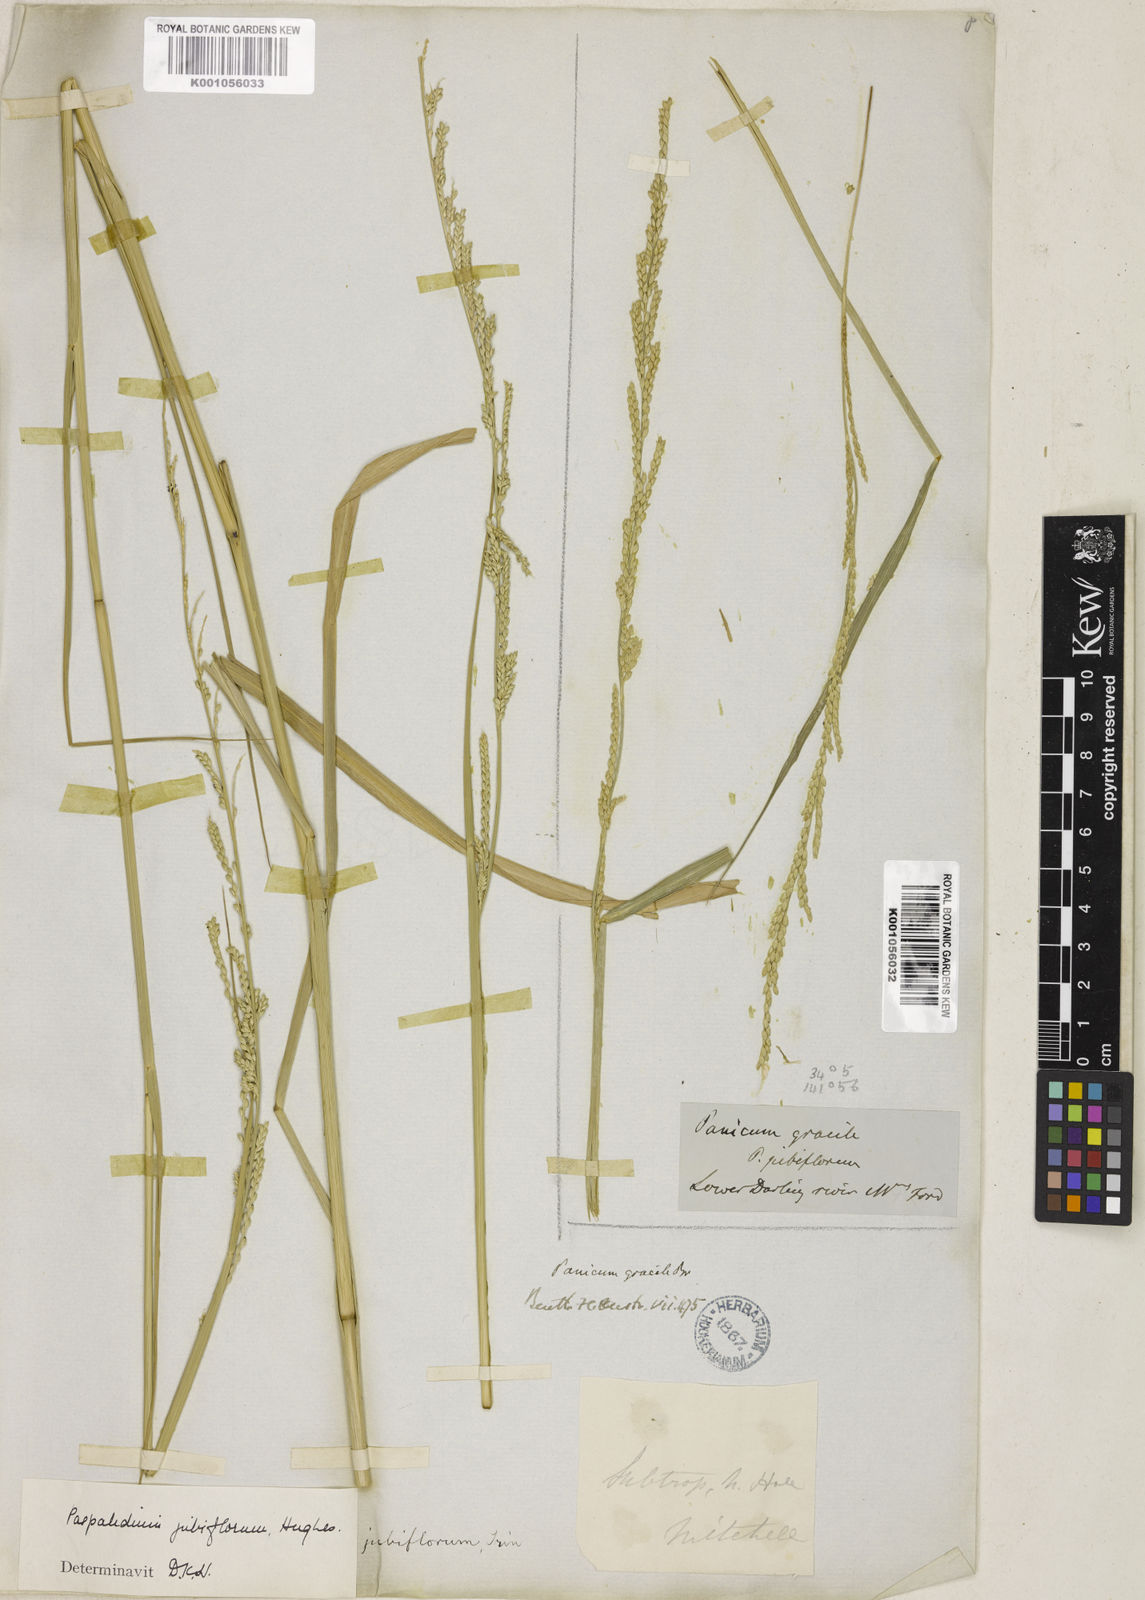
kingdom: Plantae
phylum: Tracheophyta
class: Liliopsida
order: Poales
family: Poaceae
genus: Setaria
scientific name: Setaria jubiflora
